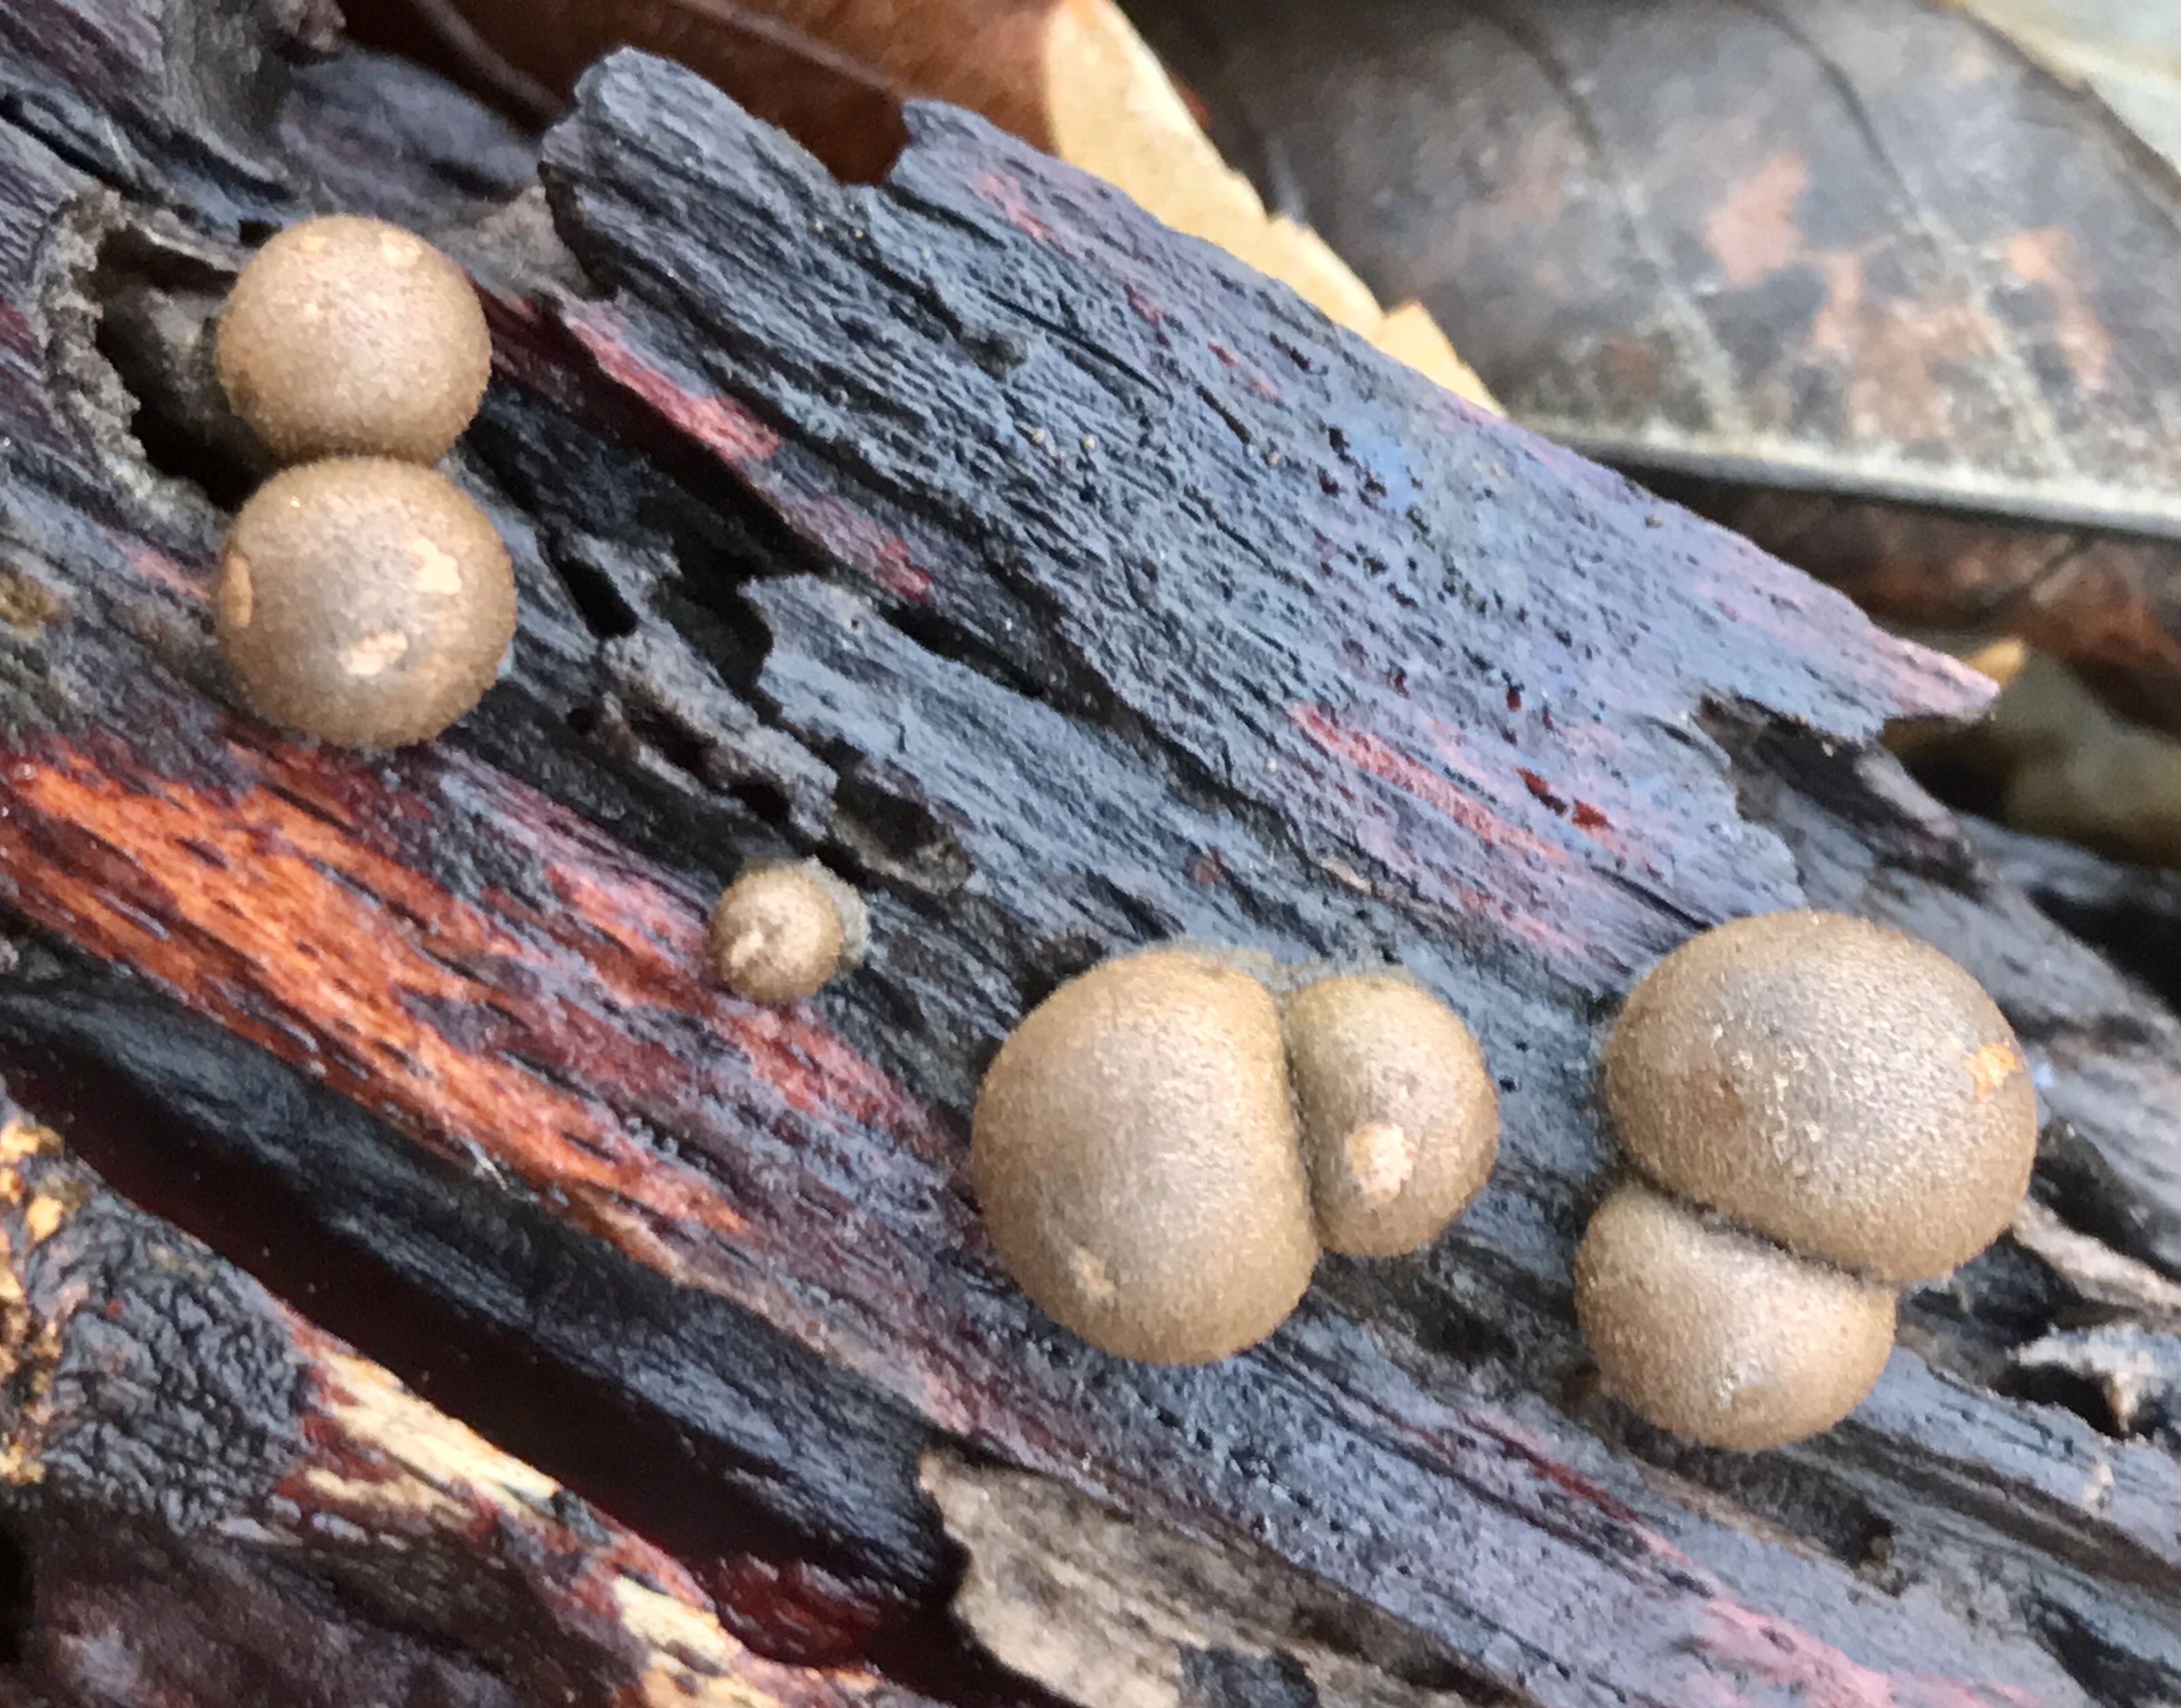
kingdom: Protozoa
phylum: Mycetozoa
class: Myxomycetes
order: Cribrariales
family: Tubiferaceae
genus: Lycogala
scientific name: Lycogala epidendrum
